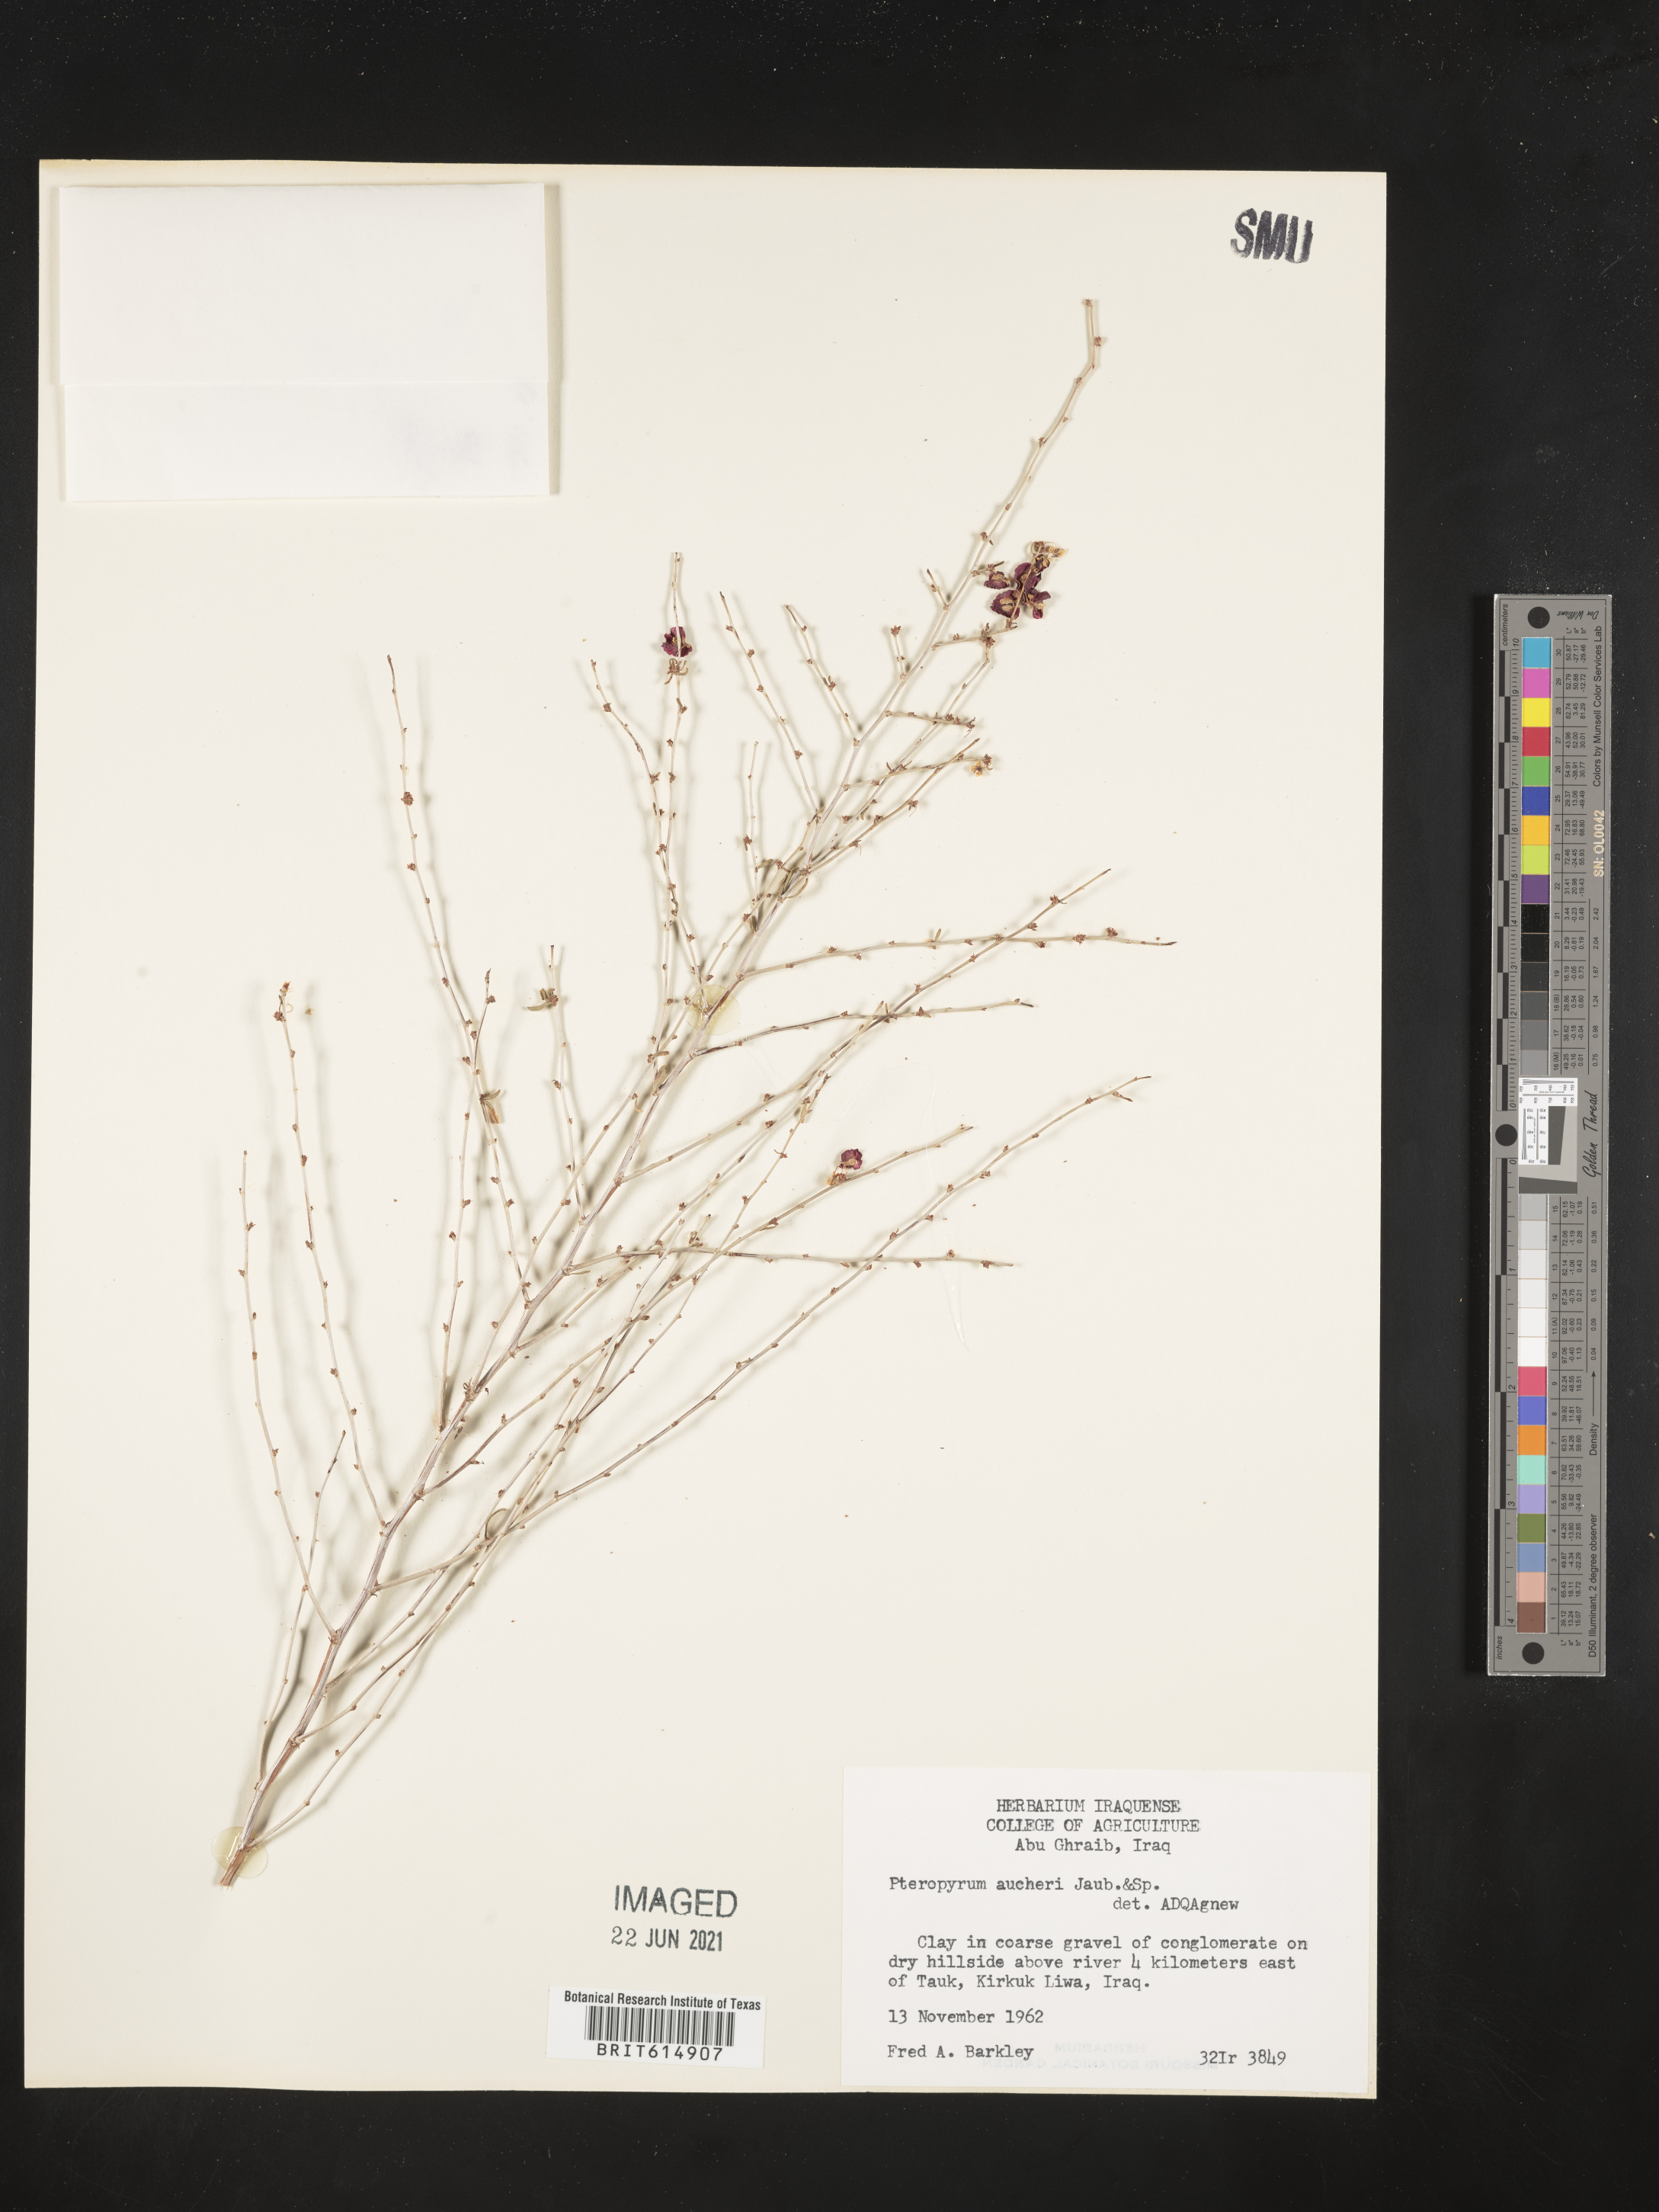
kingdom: Plantae
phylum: Tracheophyta
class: Magnoliopsida
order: Caryophyllales
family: Polygonaceae
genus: Pteropyrum
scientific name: Pteropyrum aucheri
